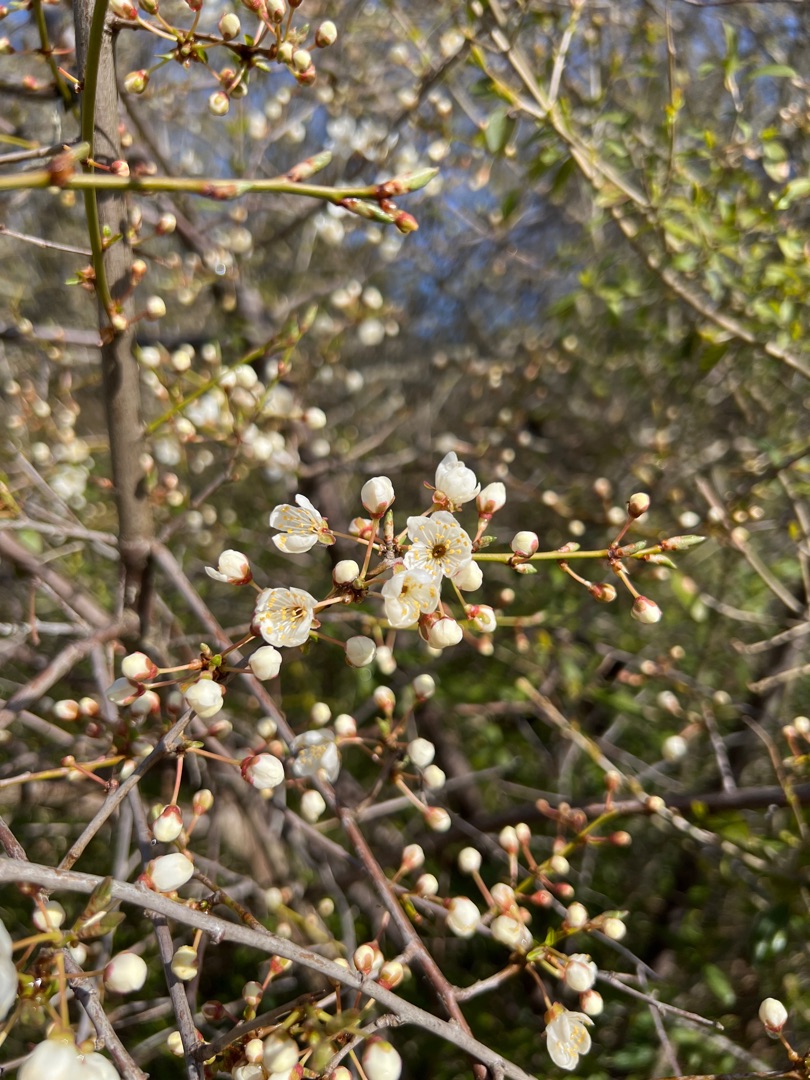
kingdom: Plantae
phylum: Tracheophyta
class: Magnoliopsida
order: Rosales
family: Rosaceae
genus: Prunus
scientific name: Prunus cerasifera
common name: Mirabel
